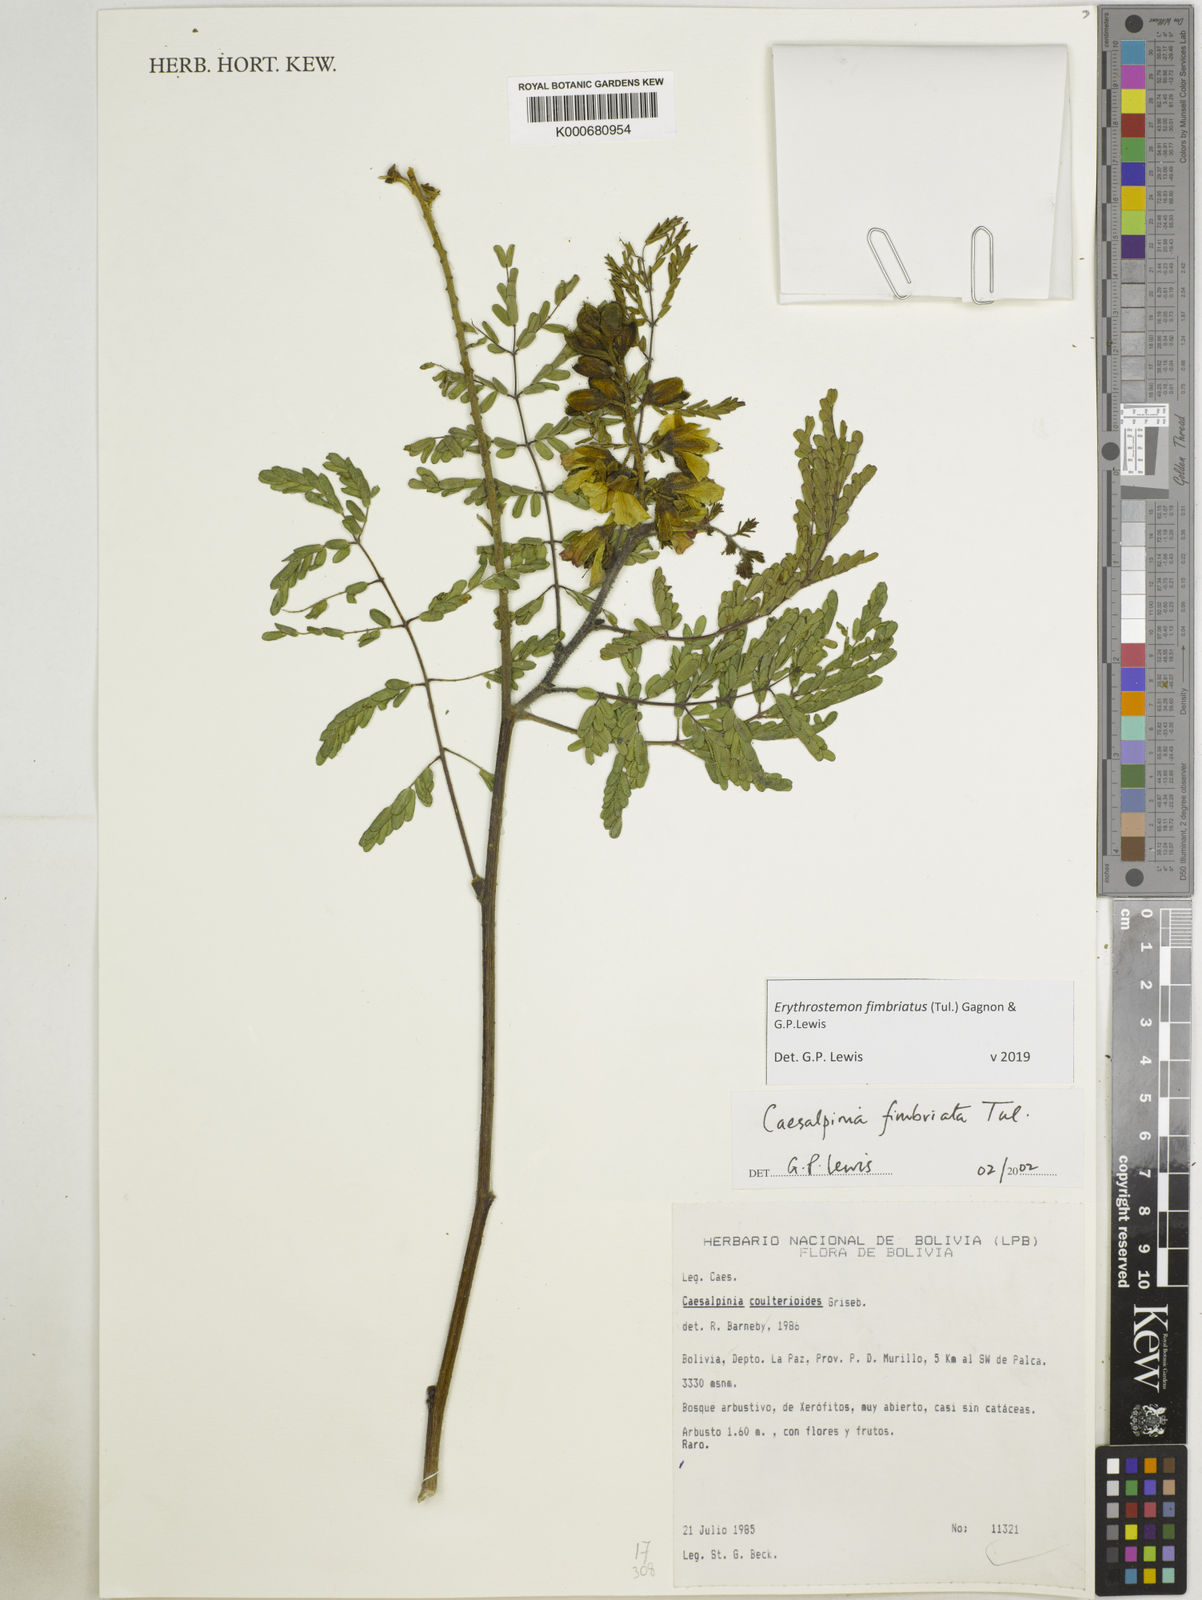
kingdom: Plantae
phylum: Tracheophyta
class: Magnoliopsida
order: Fabales
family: Fabaceae
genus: Erythrostemon
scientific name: Erythrostemon fimbriatus
